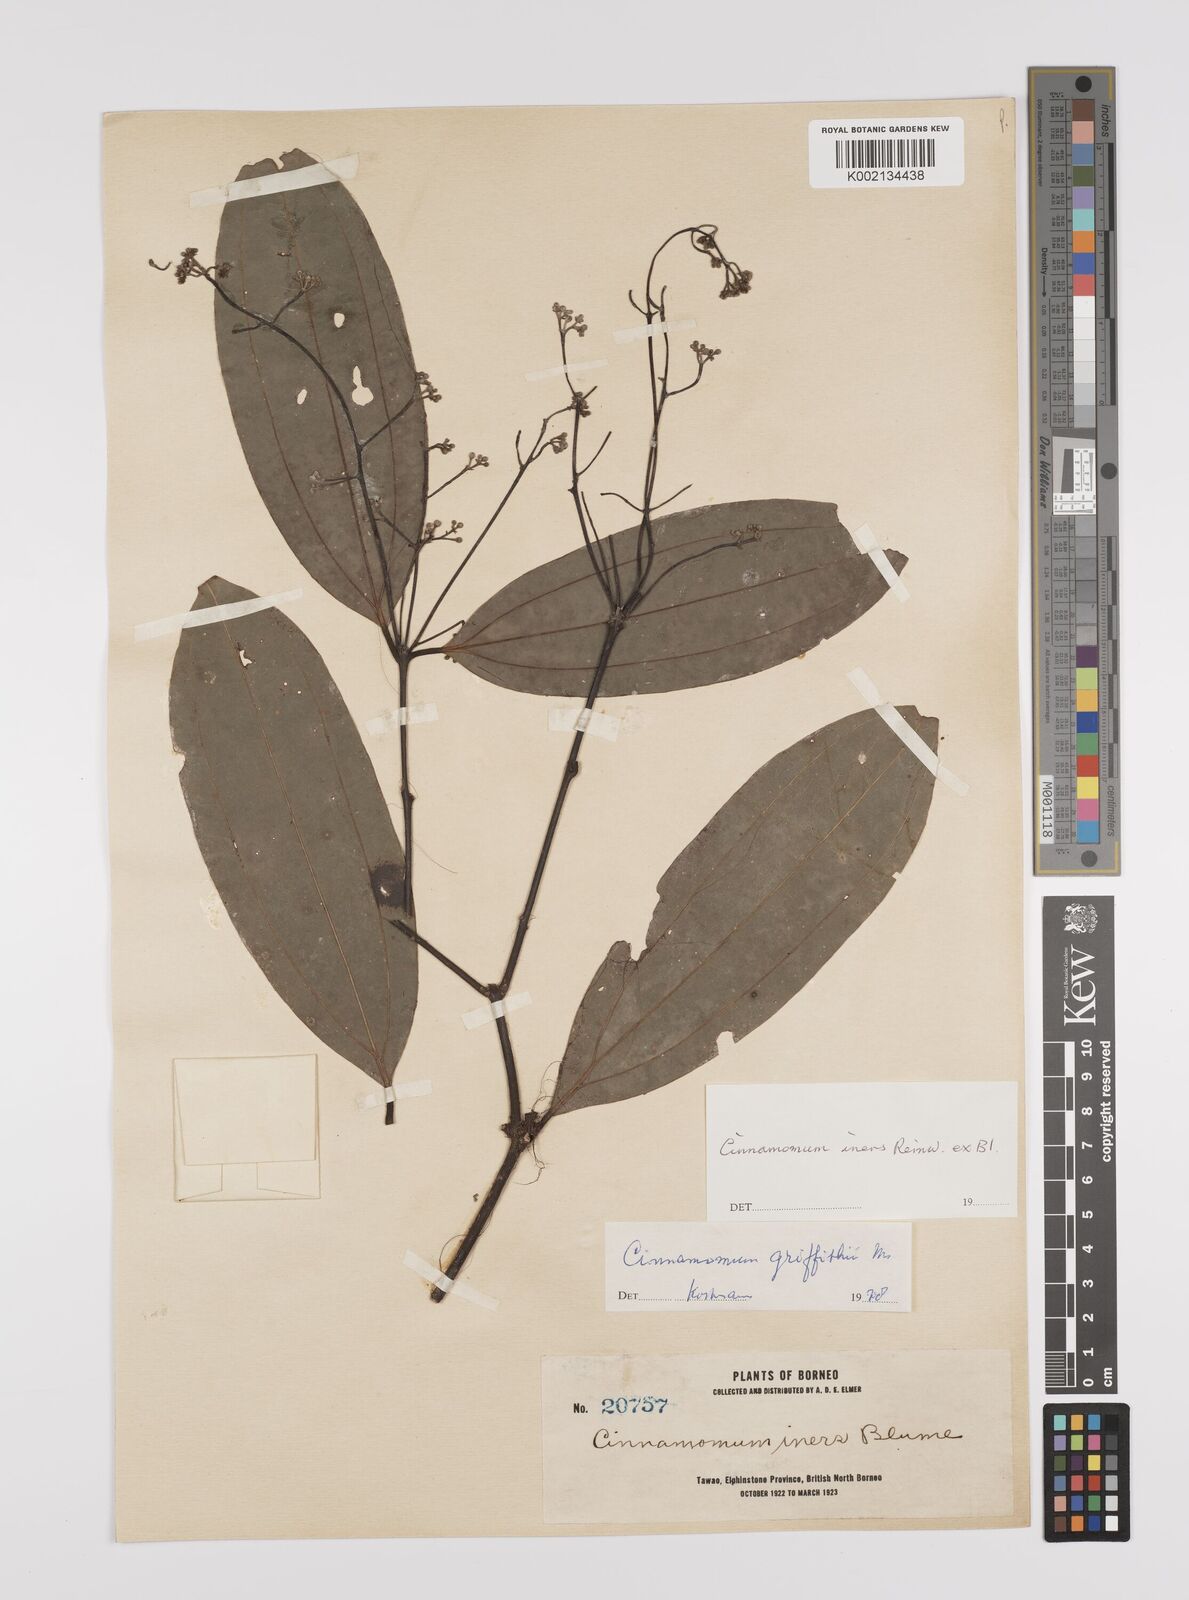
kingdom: Plantae
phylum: Tracheophyta
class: Magnoliopsida
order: Laurales
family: Lauraceae
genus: Cinnamomum
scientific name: Cinnamomum iners
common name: Wild cinnamon
